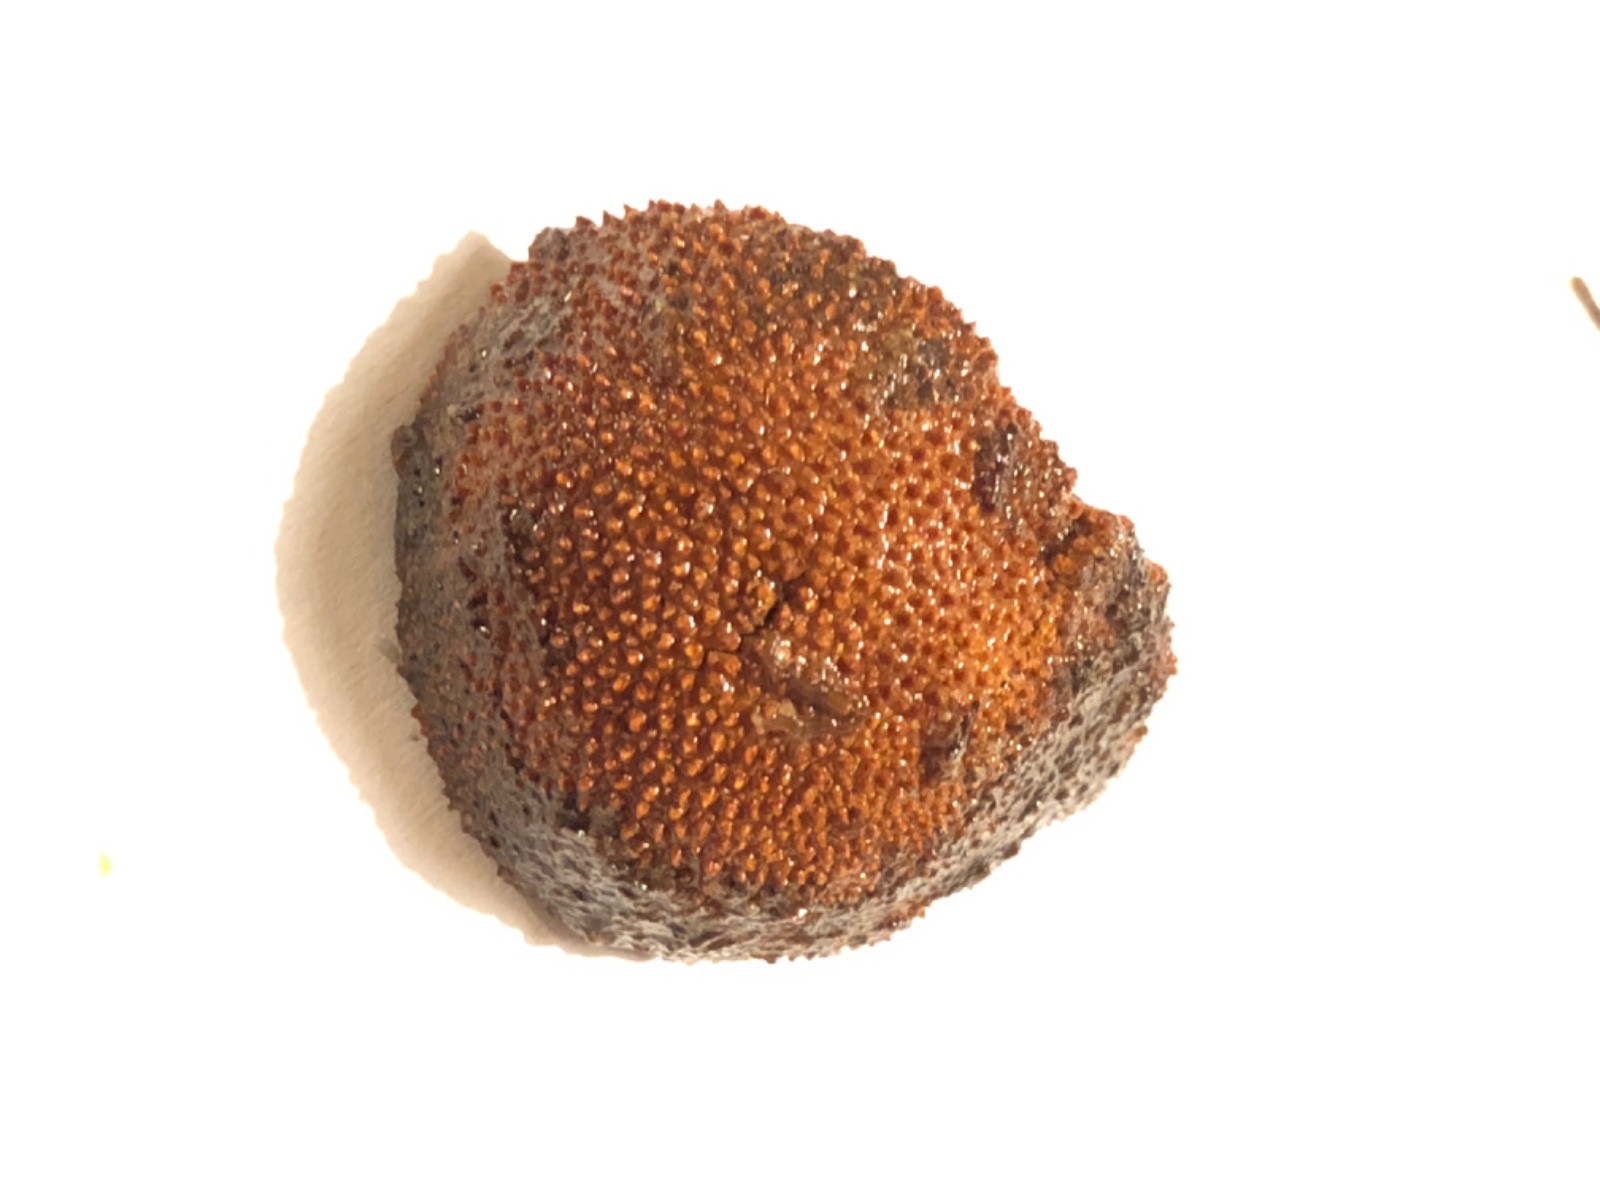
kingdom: Fungi
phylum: Ascomycota
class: Eurotiomycetes
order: Eurotiales
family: Elaphomycetaceae
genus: Elaphomyces
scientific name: Elaphomyces muricatus
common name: vortet hjortetrøffel
